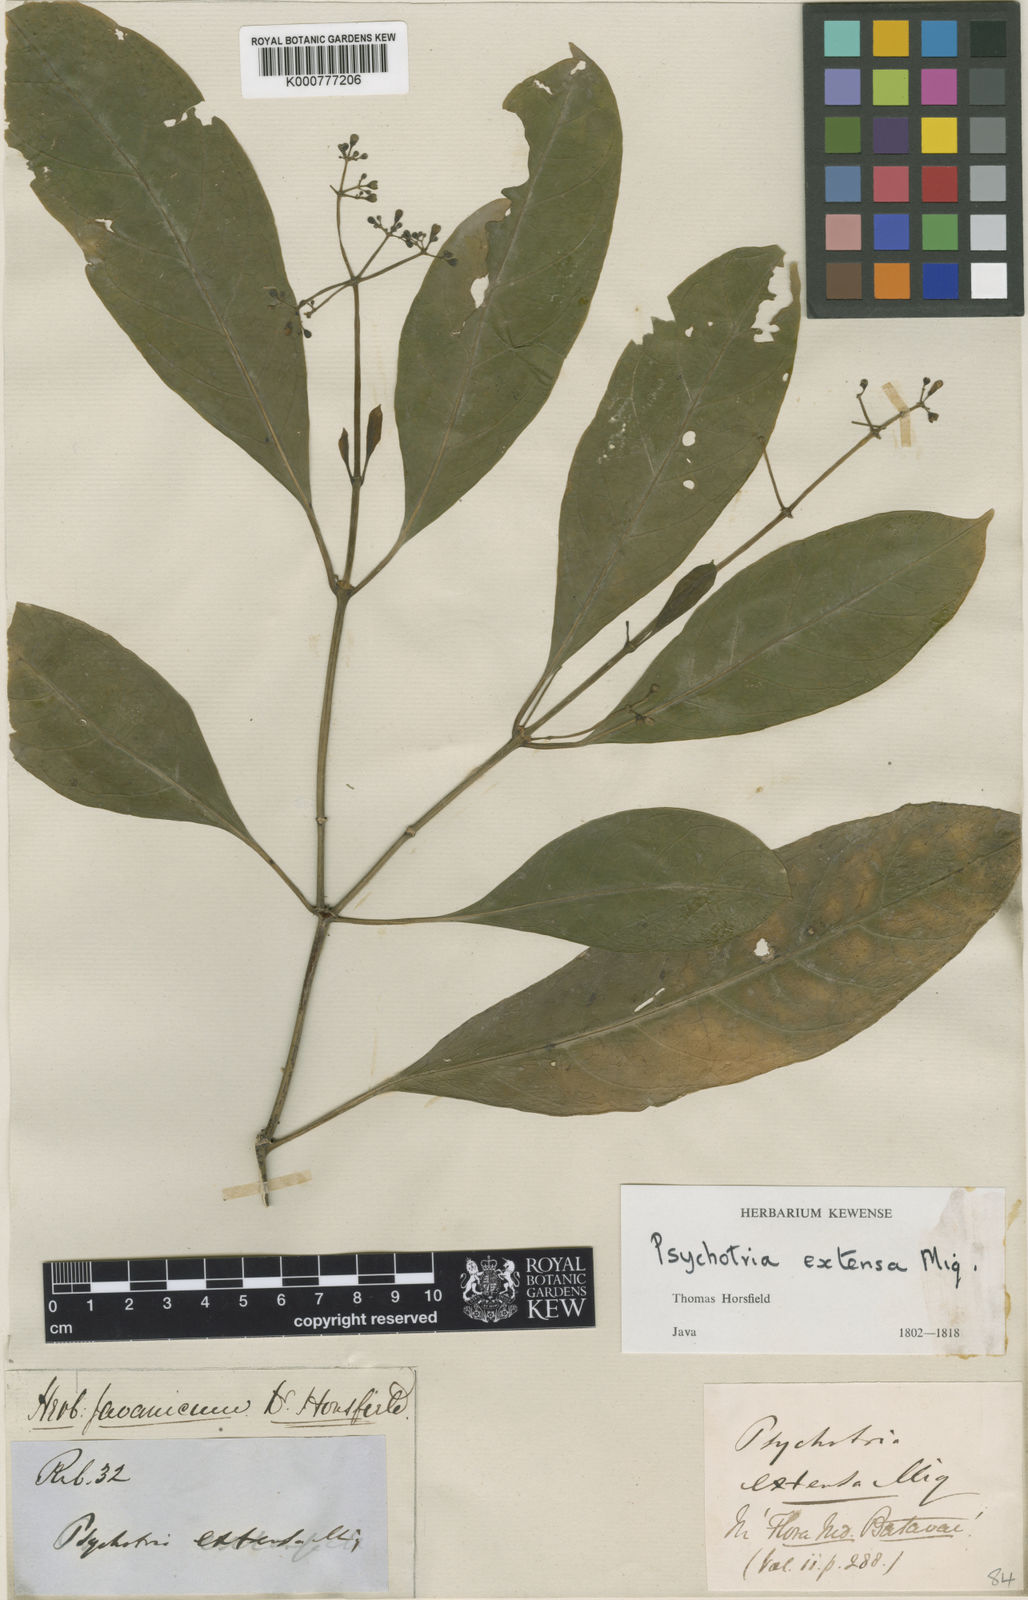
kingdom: Plantae
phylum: Tracheophyta
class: Magnoliopsida
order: Gentianales
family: Rubiaceae
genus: Eumachia
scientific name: Eumachia extensa
